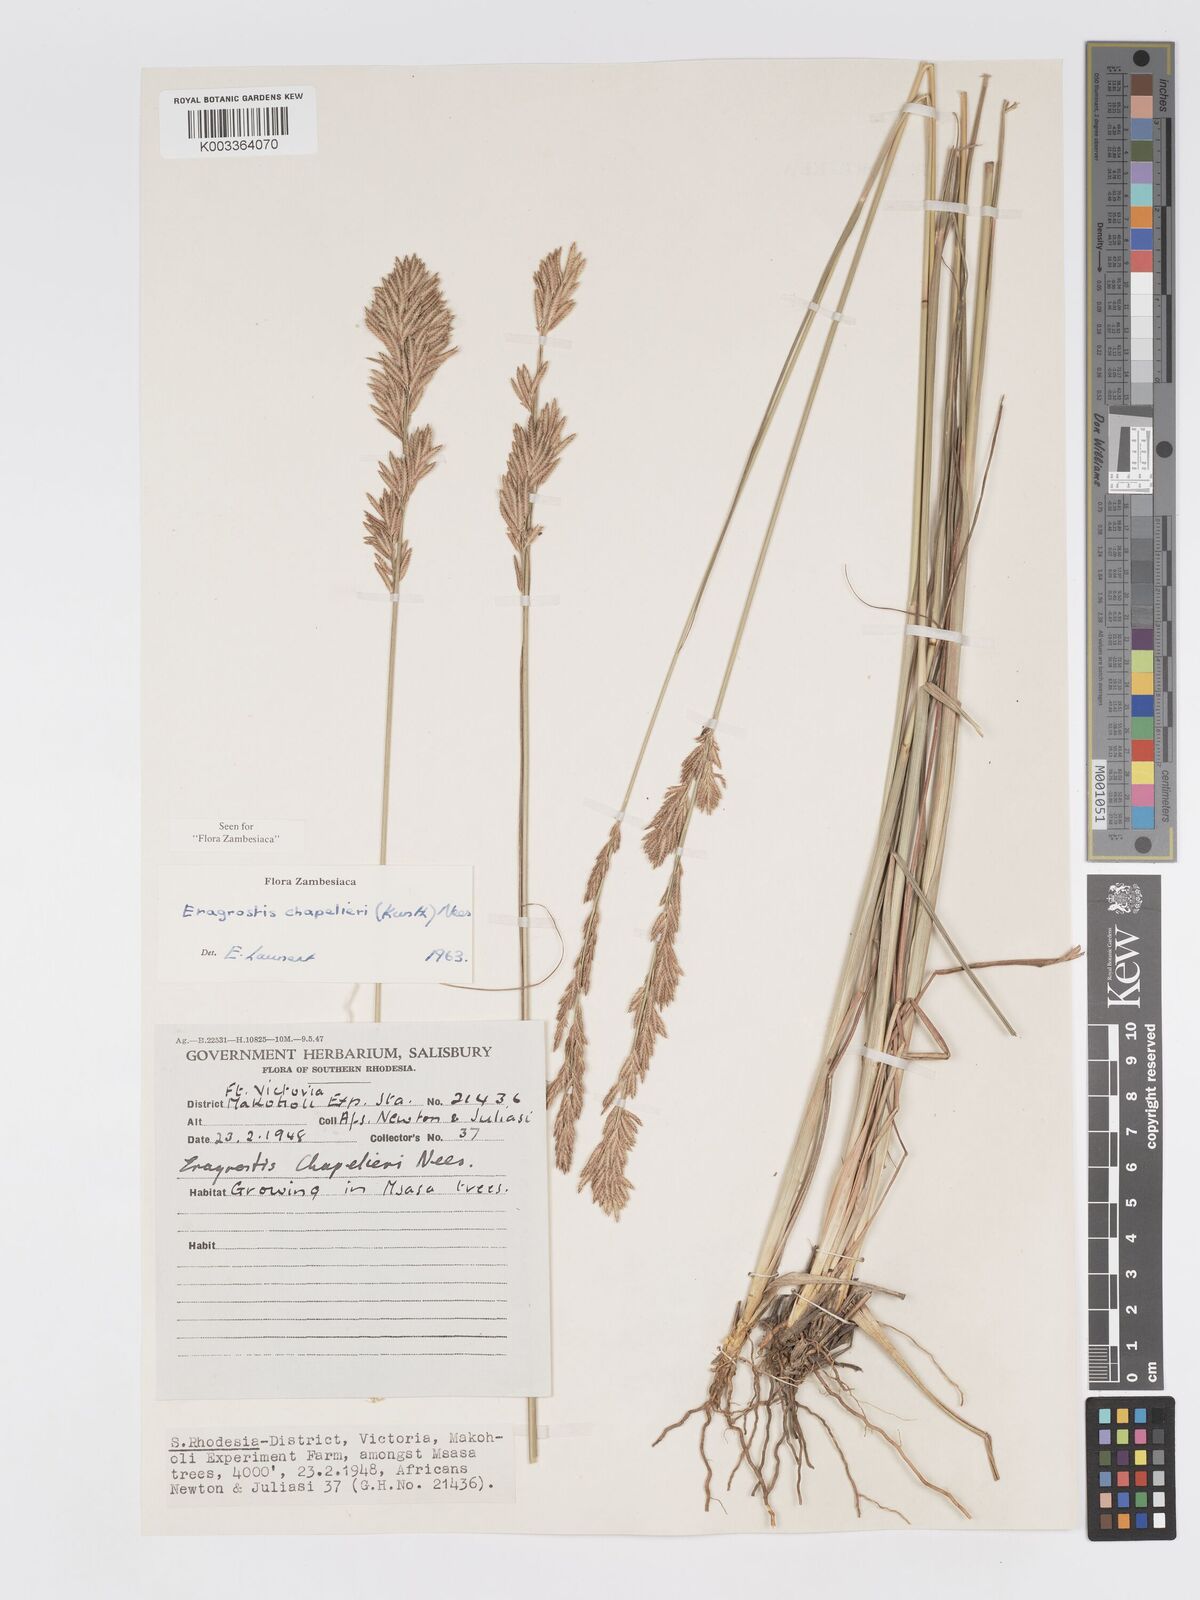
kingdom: Plantae
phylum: Tracheophyta
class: Liliopsida
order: Poales
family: Poaceae
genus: Eragrostis
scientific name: Eragrostis chapelieri
